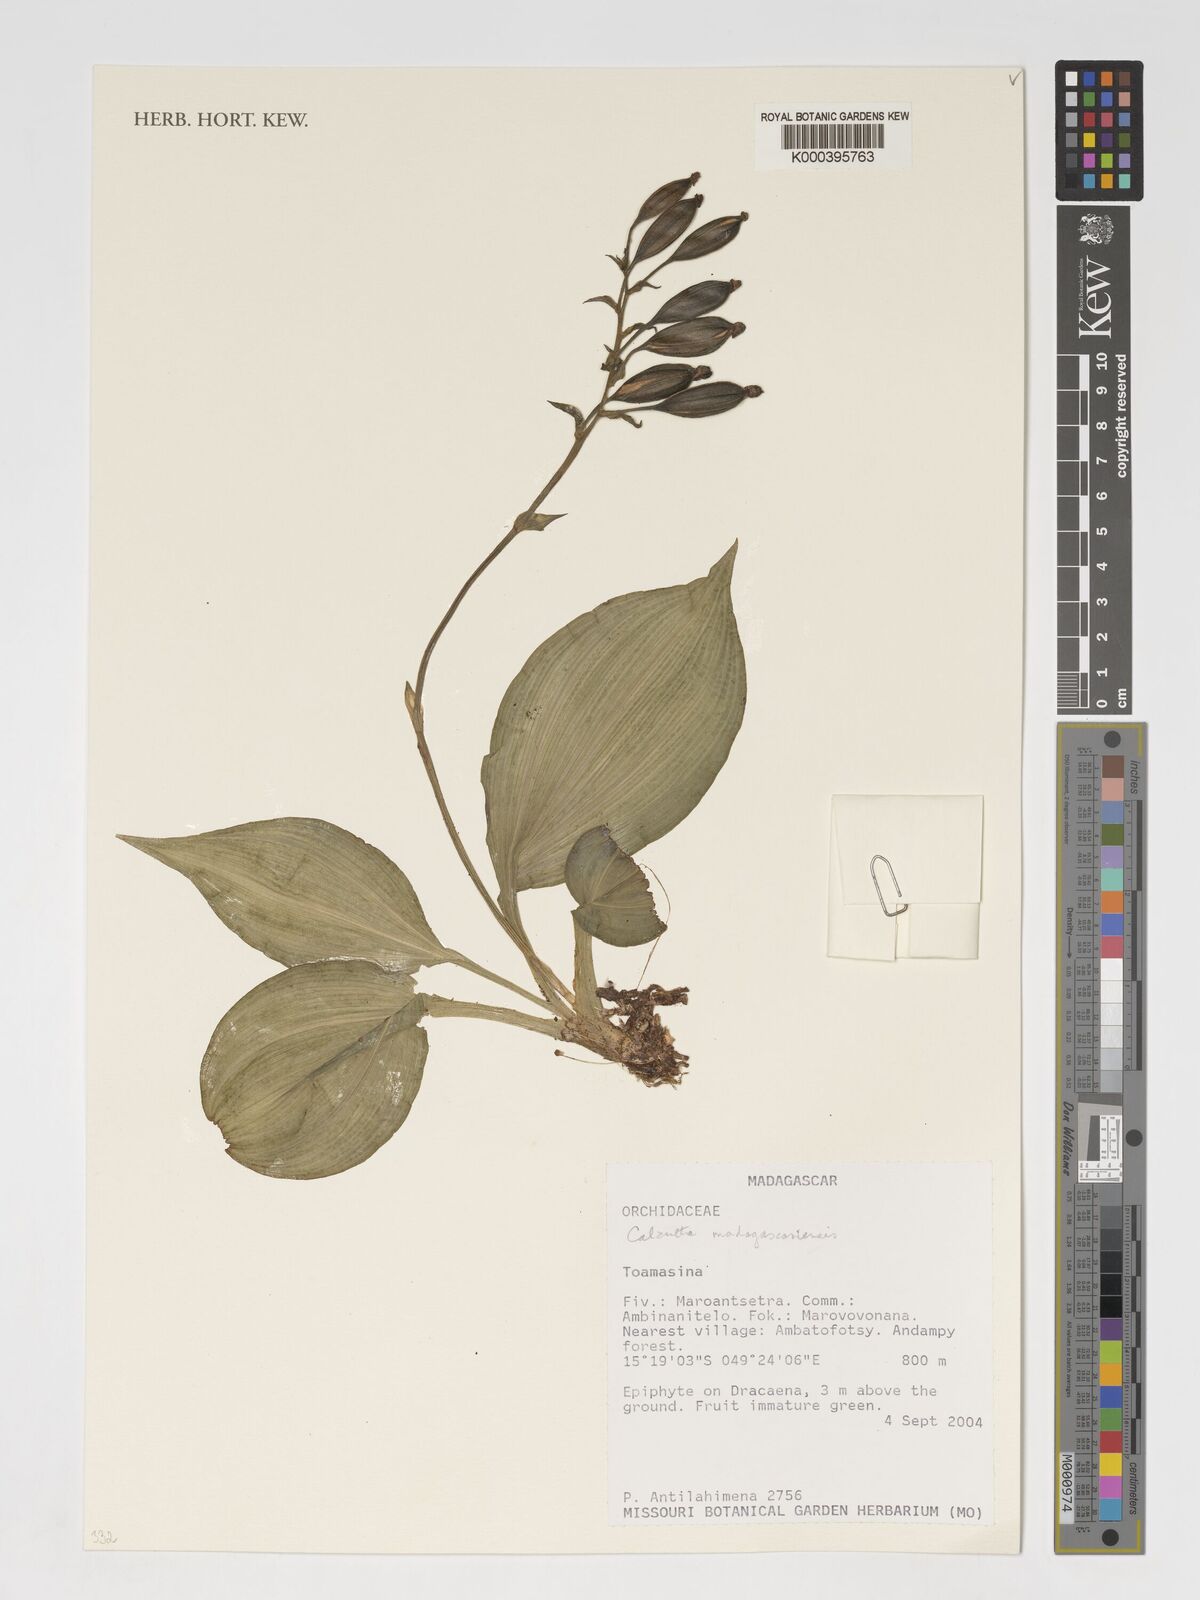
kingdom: Plantae
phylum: Tracheophyta
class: Liliopsida
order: Asparagales
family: Orchidaceae
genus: Calanthe
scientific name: Calanthe
